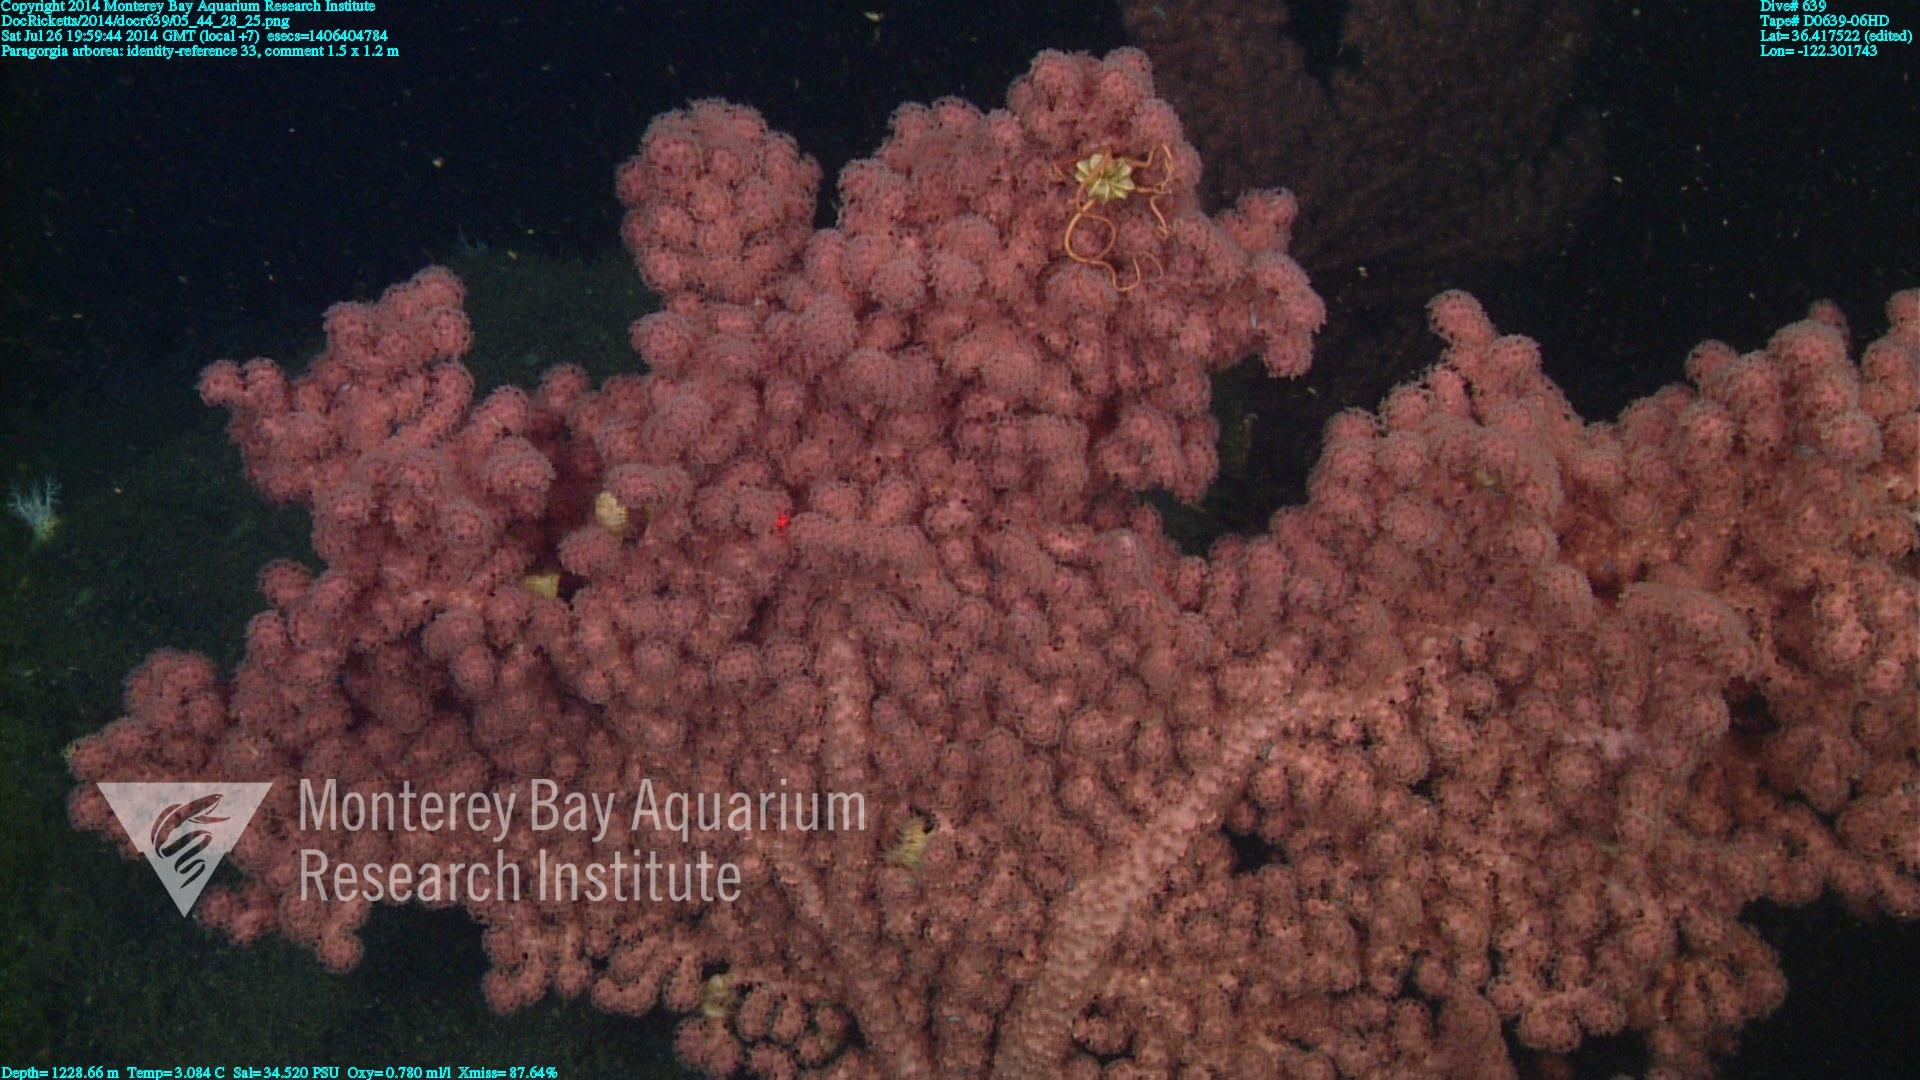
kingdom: Animalia
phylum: Cnidaria
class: Anthozoa
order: Scleralcyonacea
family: Coralliidae
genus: Paragorgia
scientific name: Paragorgia arborea
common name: Bubble gum coral
